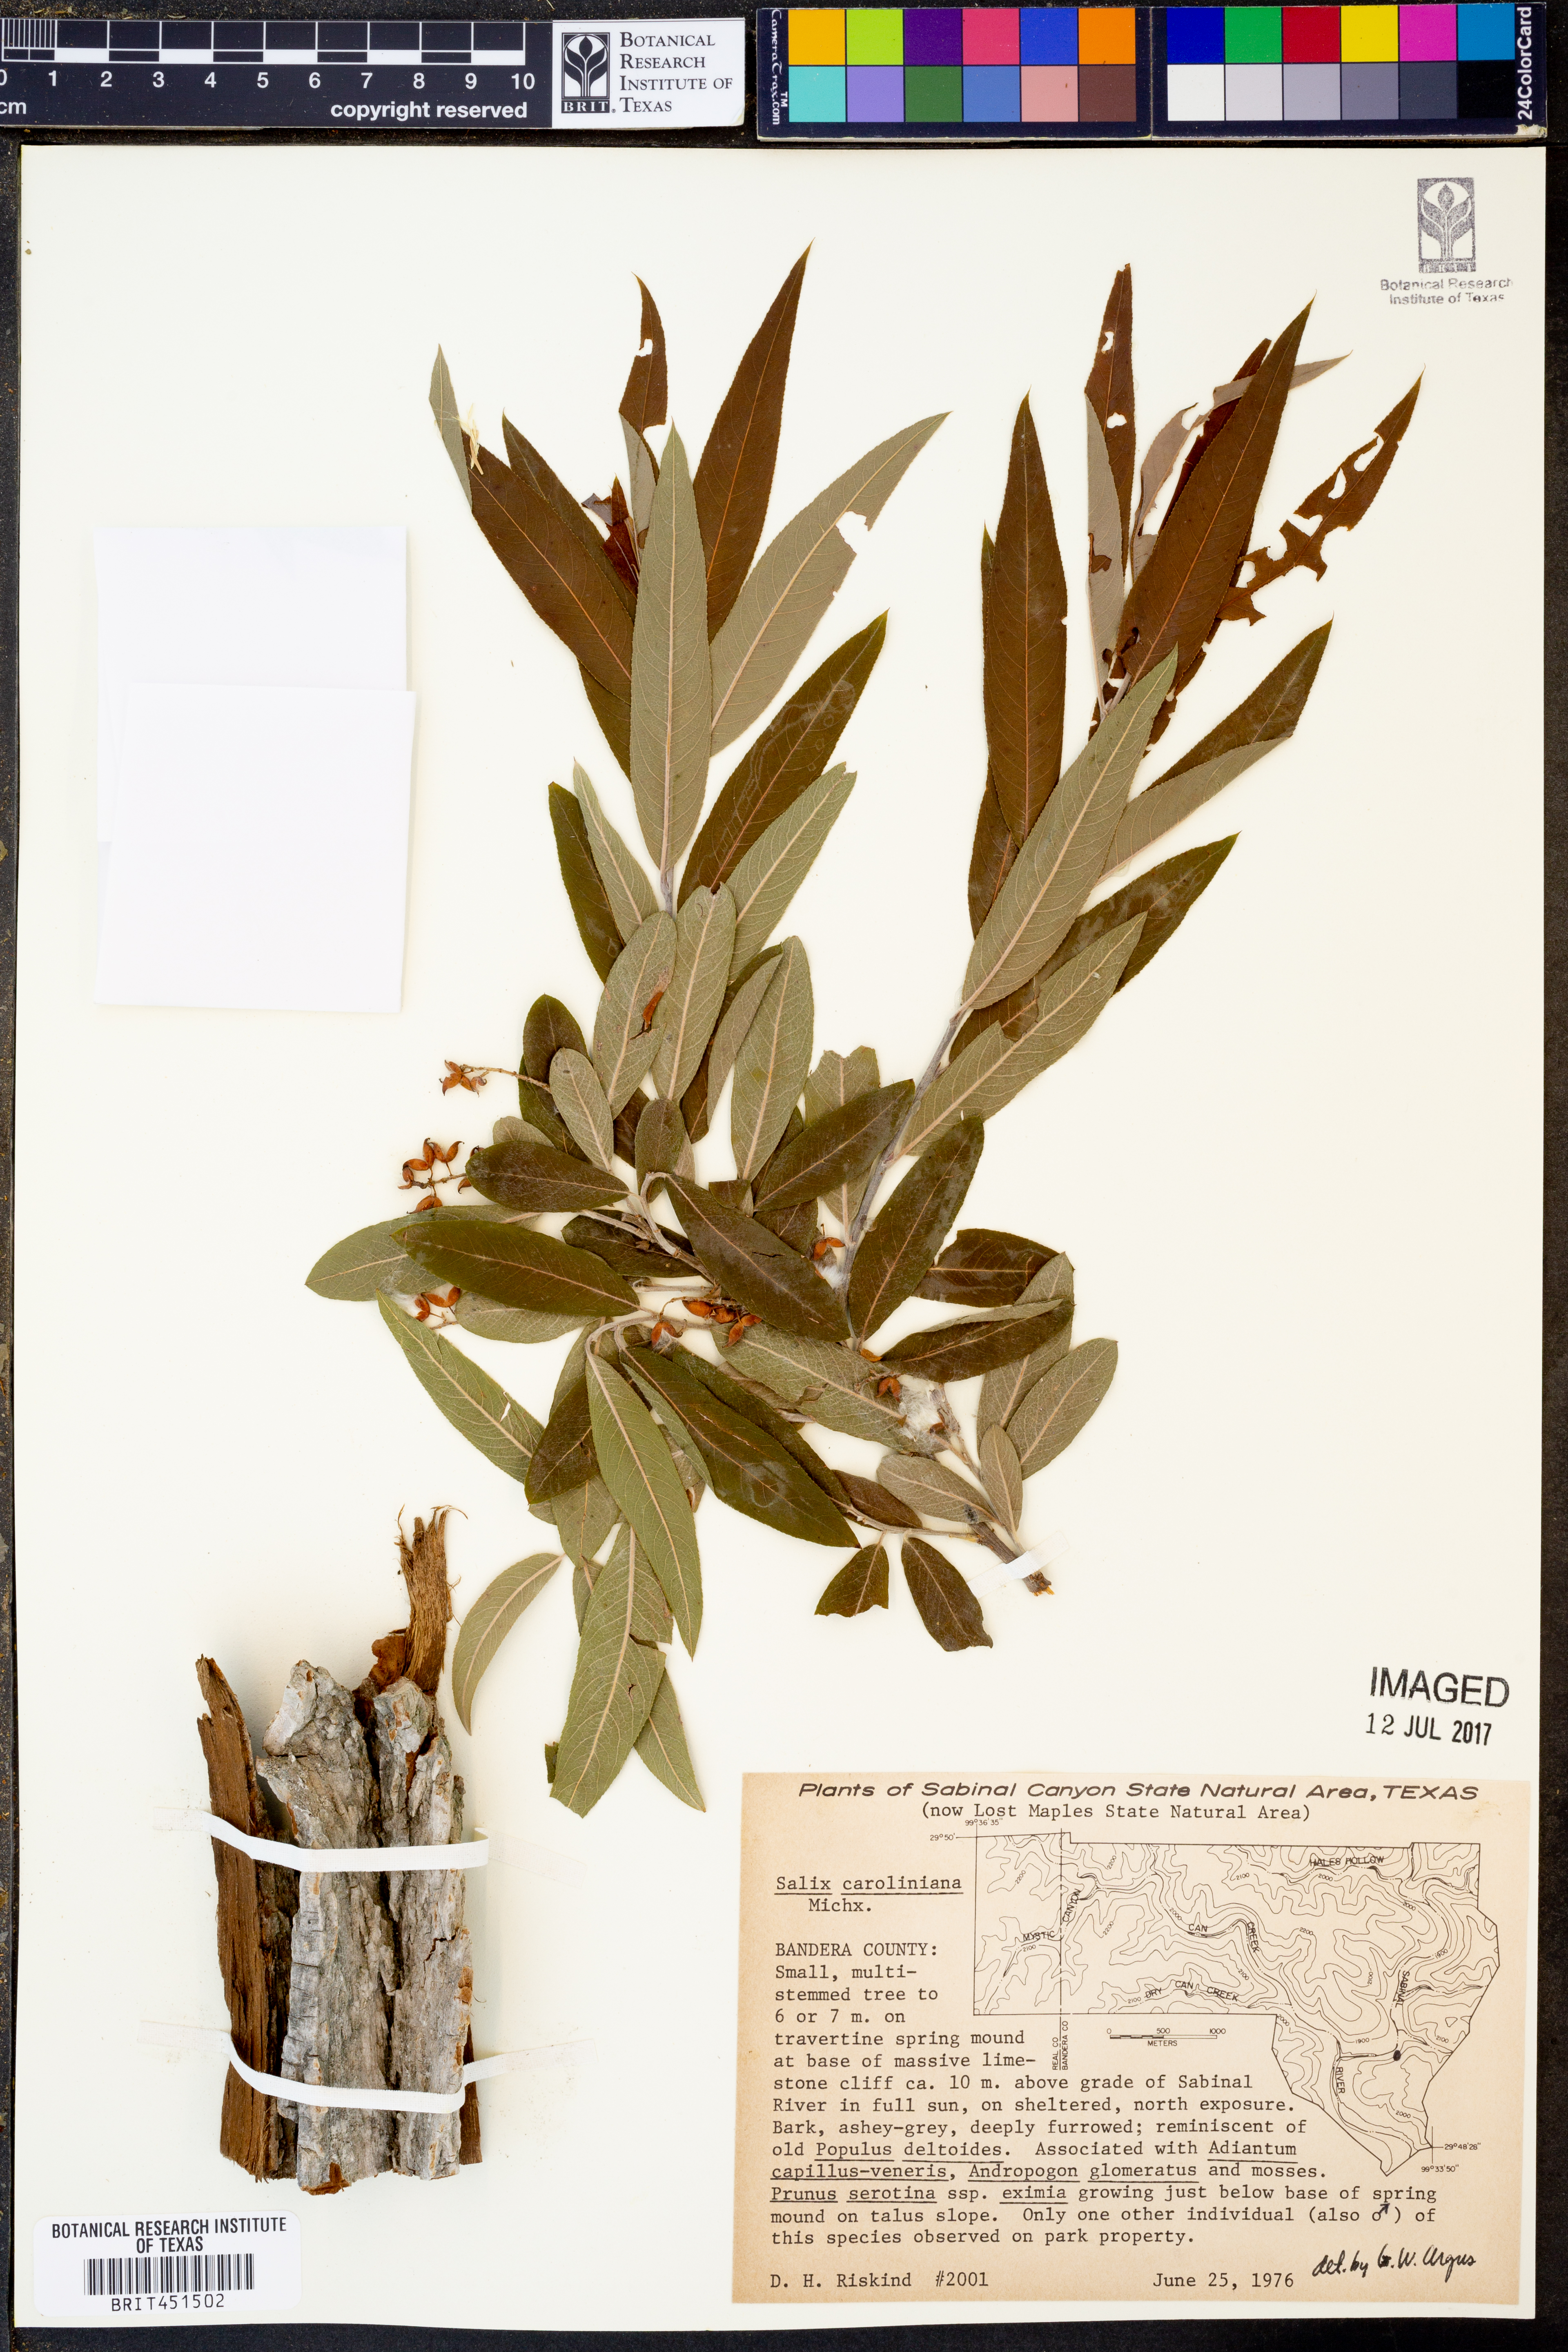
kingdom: Plantae
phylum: Tracheophyta
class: Magnoliopsida
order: Malpighiales
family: Salicaceae
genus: Salix
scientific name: Salix caroliniana
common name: Carolina willow
